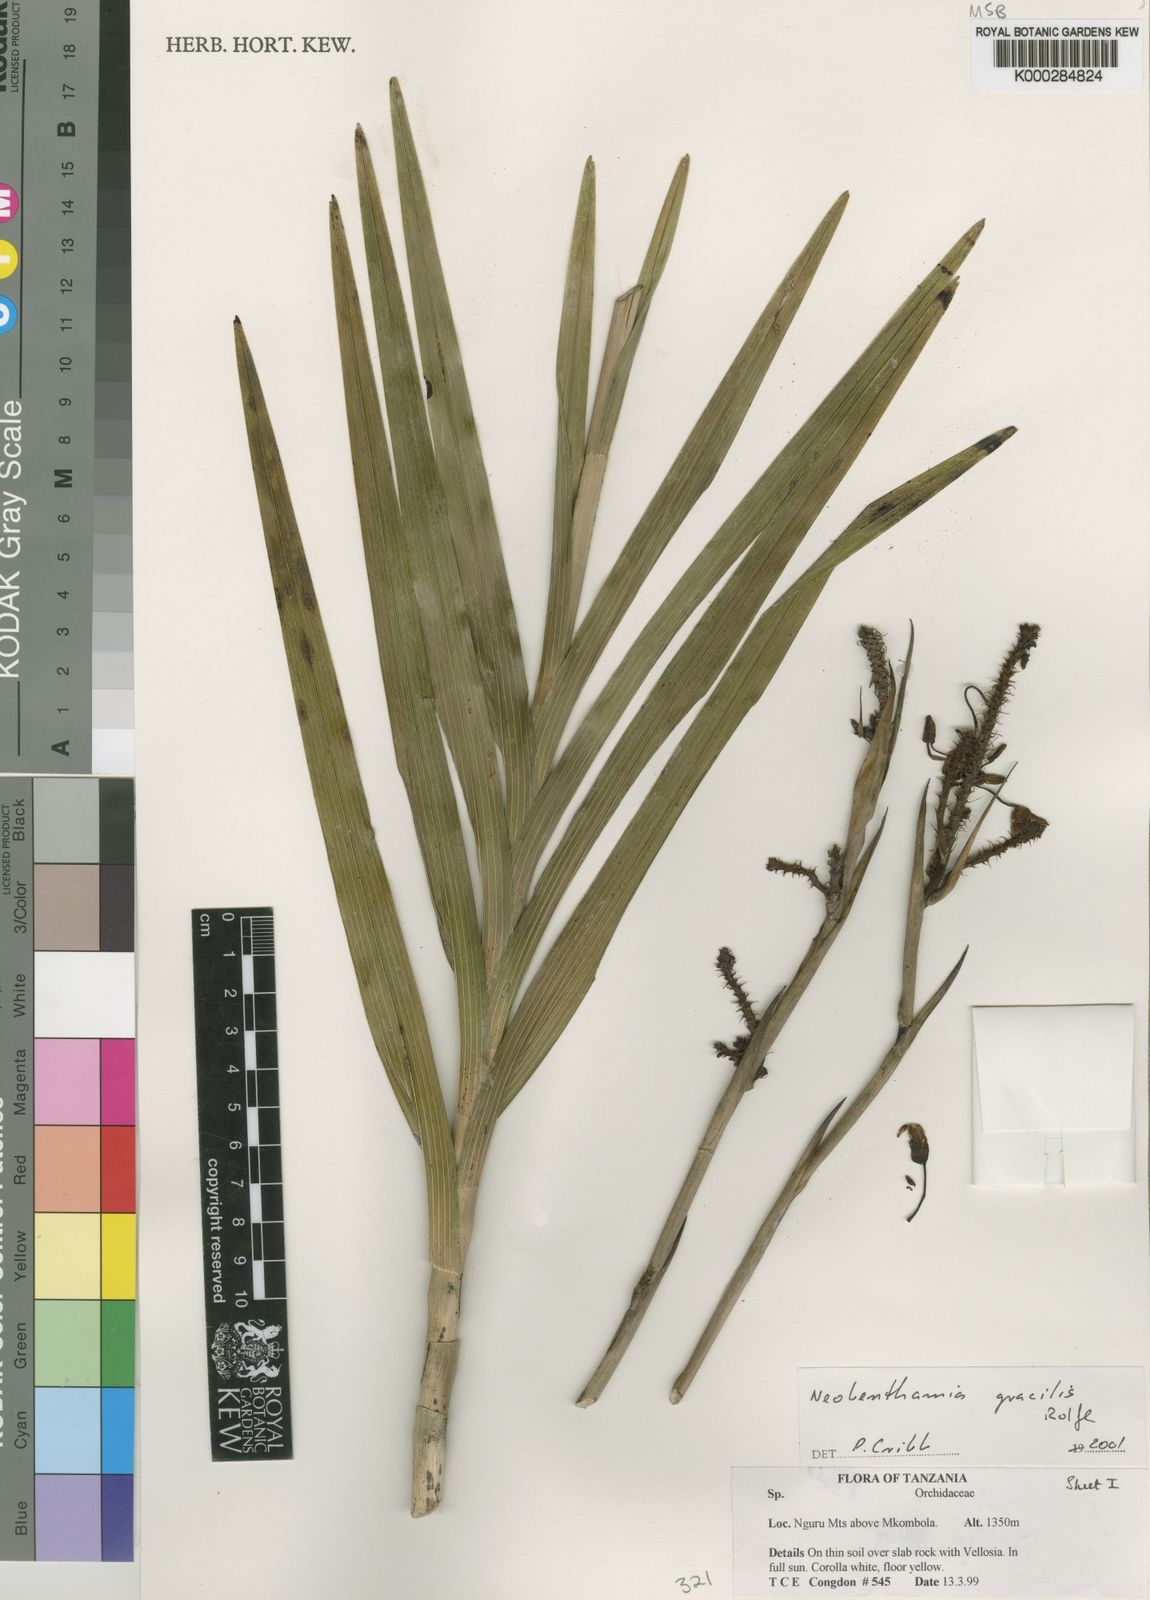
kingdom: Plantae
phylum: Tracheophyta
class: Liliopsida
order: Asparagales
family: Orchidaceae
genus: Polystachya
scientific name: Polystachya neobenthamia
